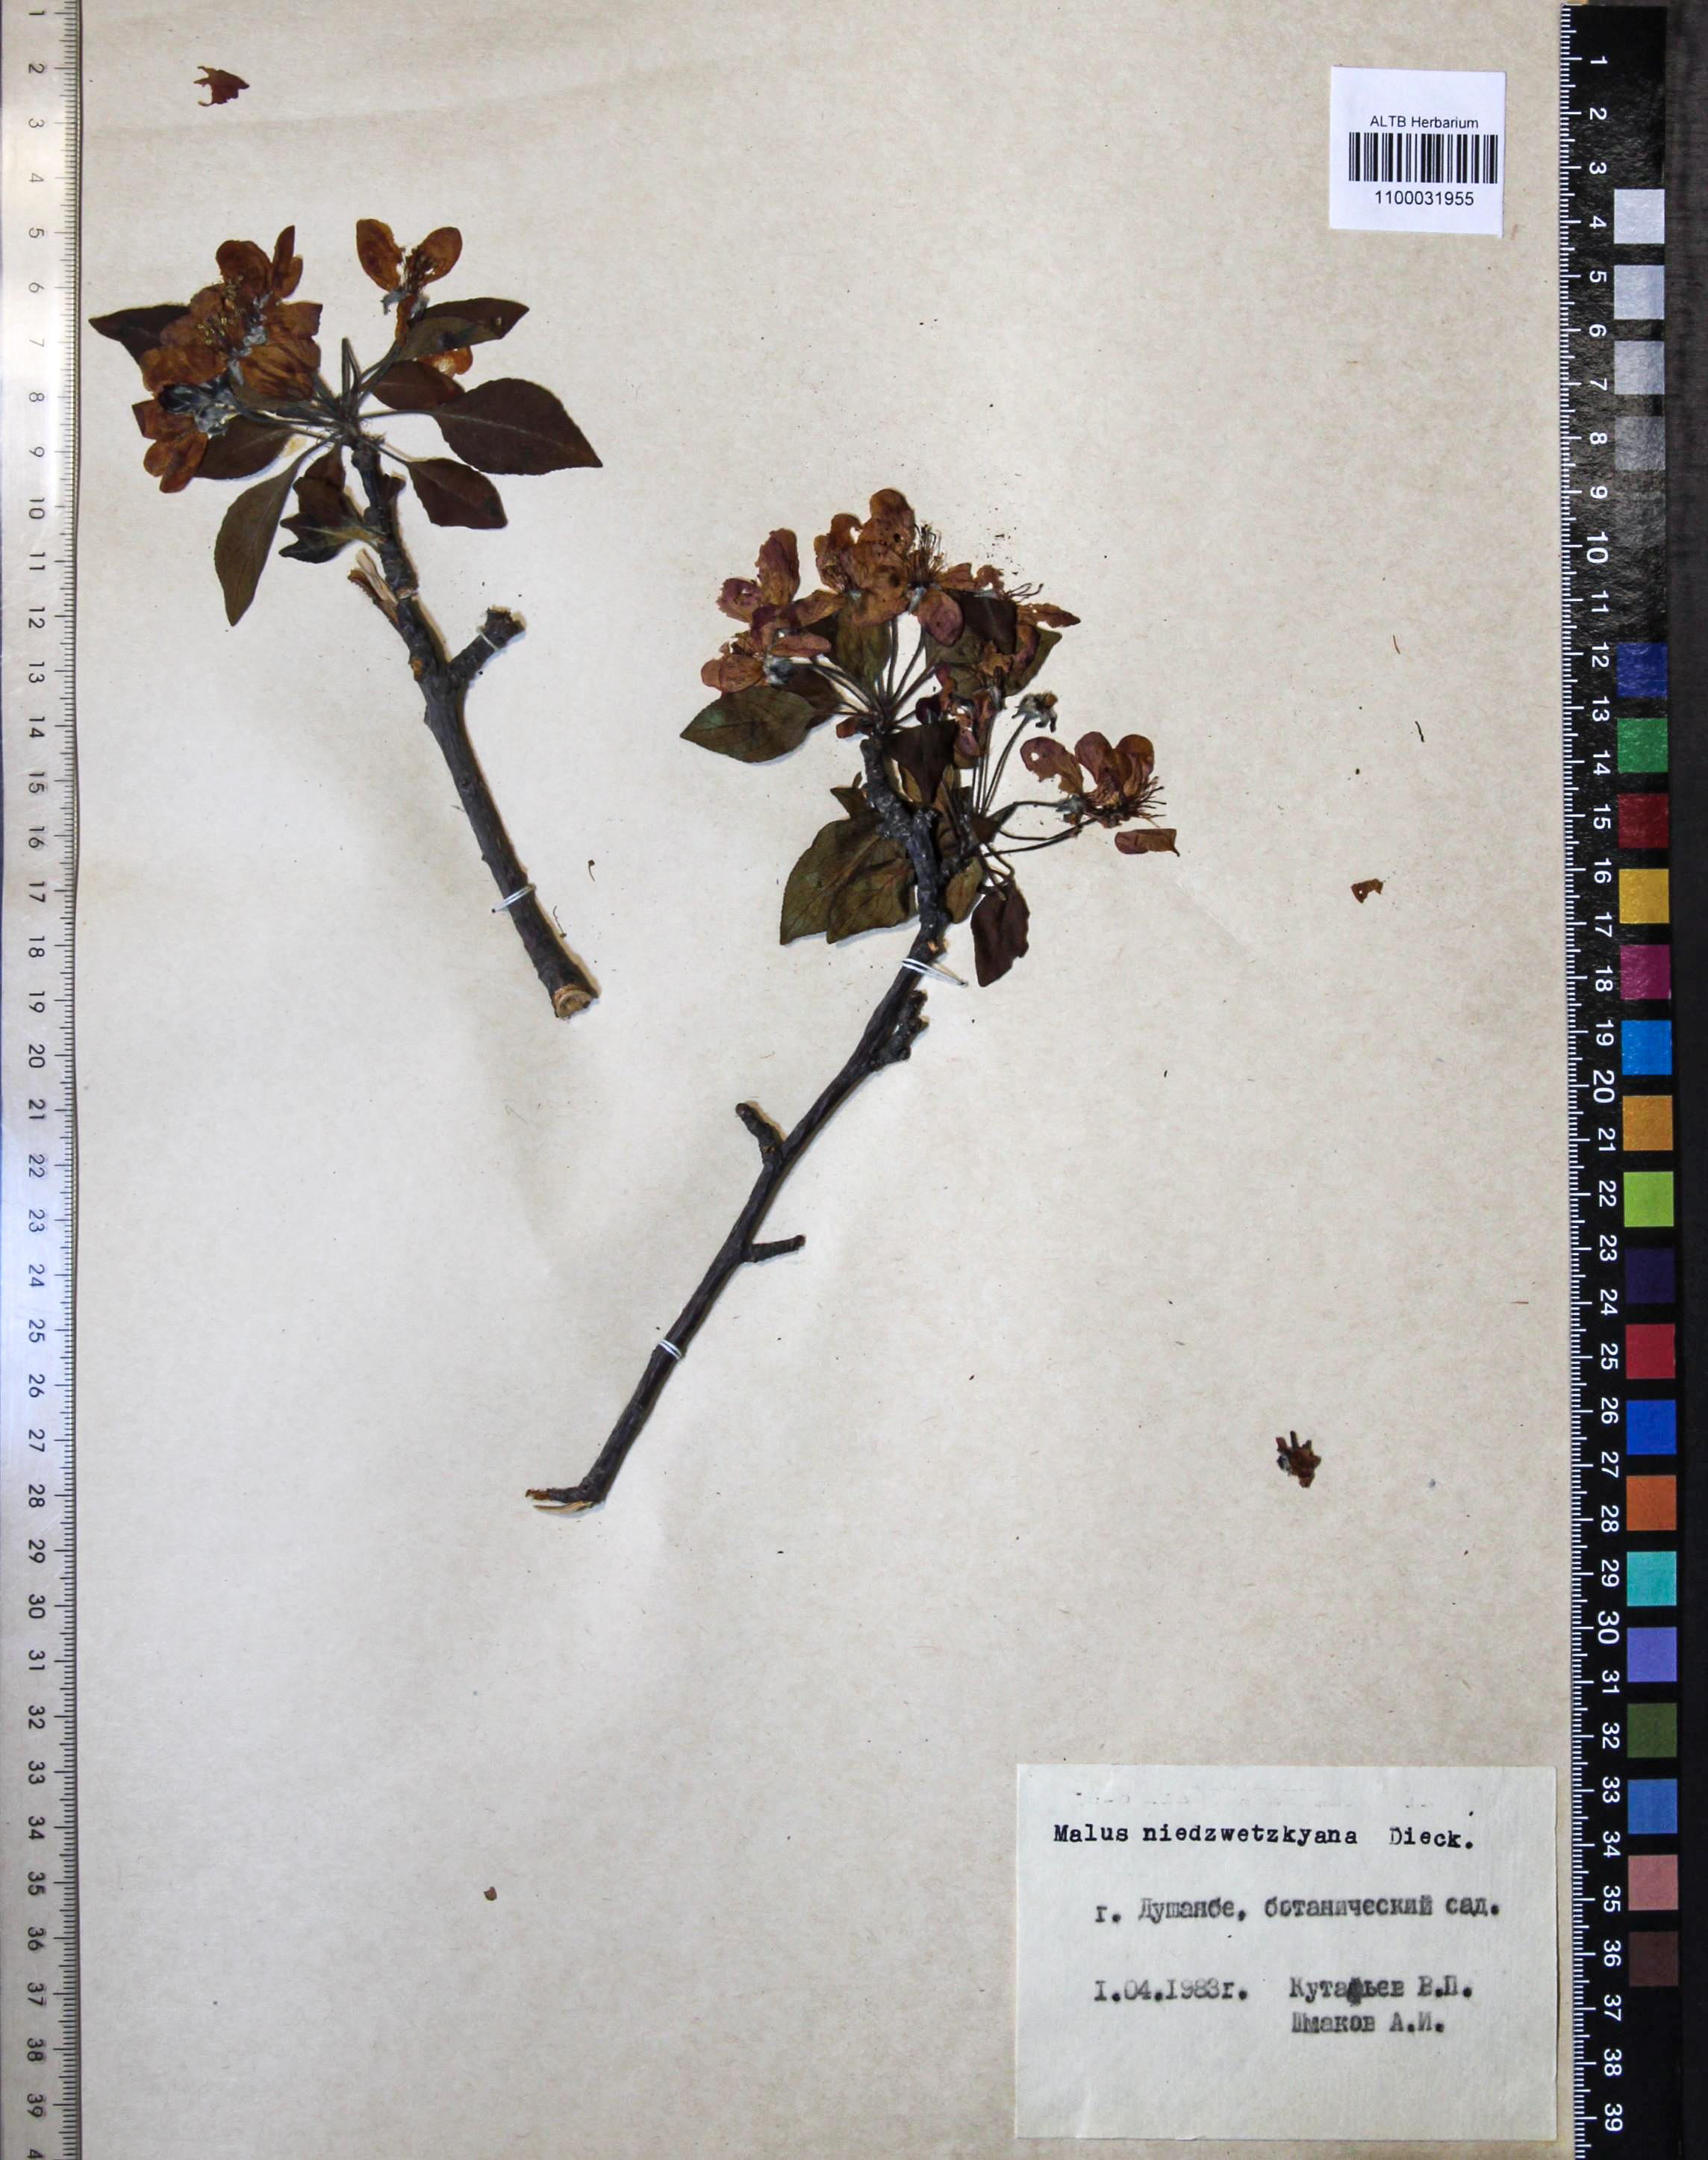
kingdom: Plantae
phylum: Tracheophyta
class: Magnoliopsida
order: Rosales
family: Rosaceae
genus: Malus
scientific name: Malus domestica
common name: Apple
